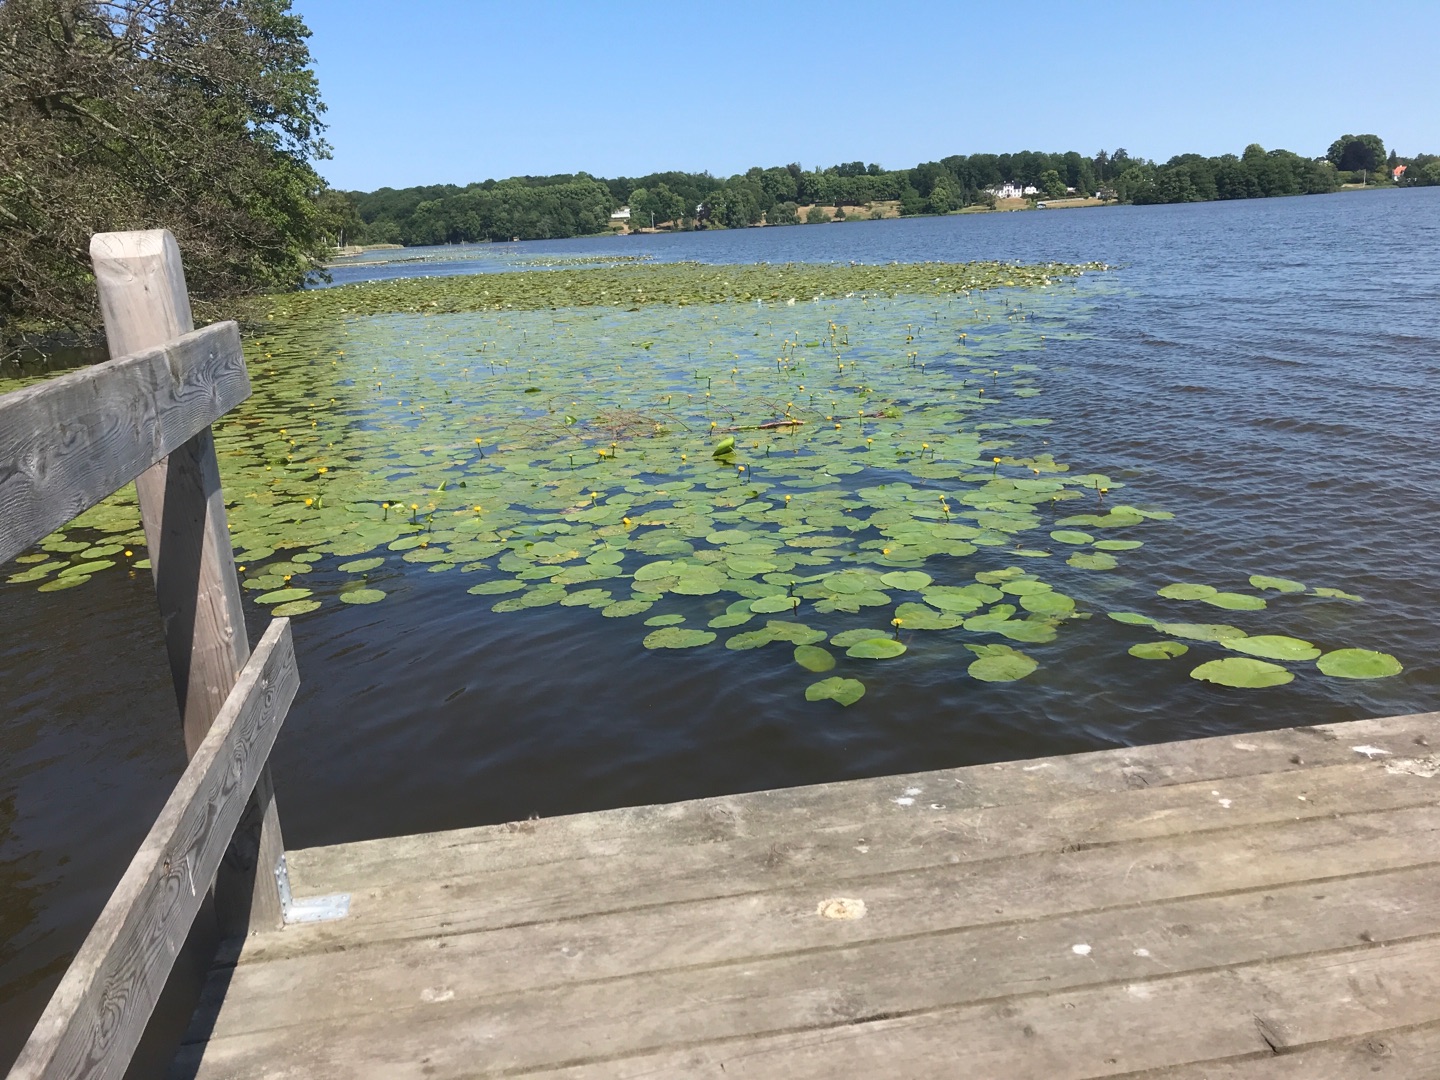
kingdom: Plantae
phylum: Tracheophyta
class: Magnoliopsida
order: Nymphaeales
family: Nymphaeaceae
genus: Nuphar
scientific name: Nuphar lutea
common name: Gul åkande
